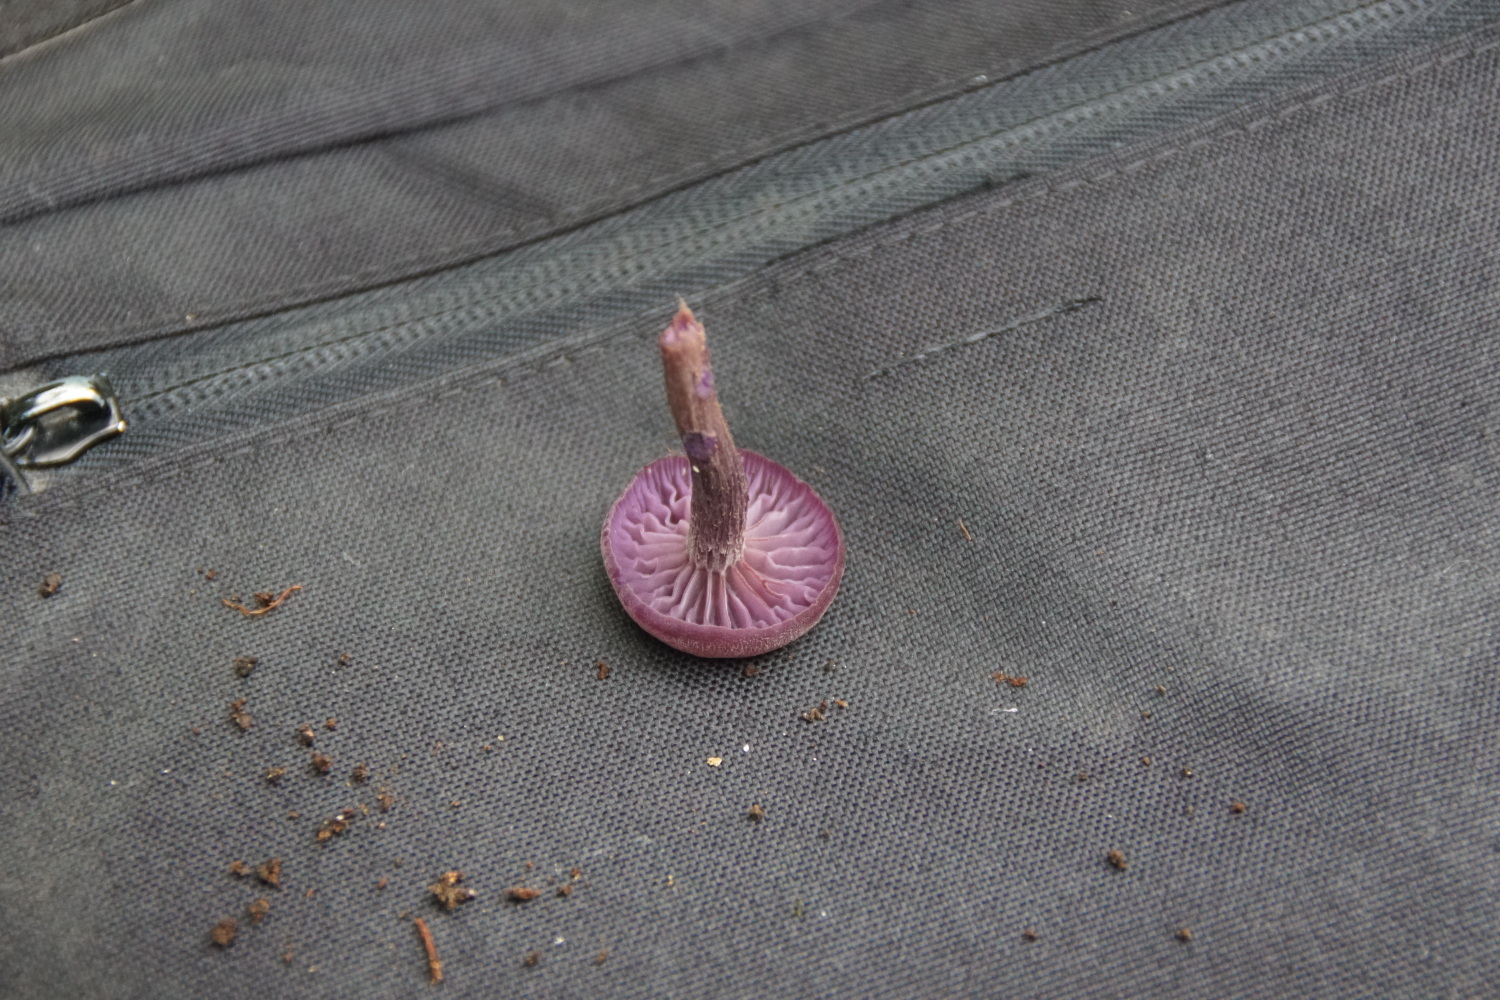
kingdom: Fungi
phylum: Basidiomycota
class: Agaricomycetes
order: Agaricales
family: Hydnangiaceae
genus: Laccaria
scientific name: Laccaria amethystina
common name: violet ametysthat
